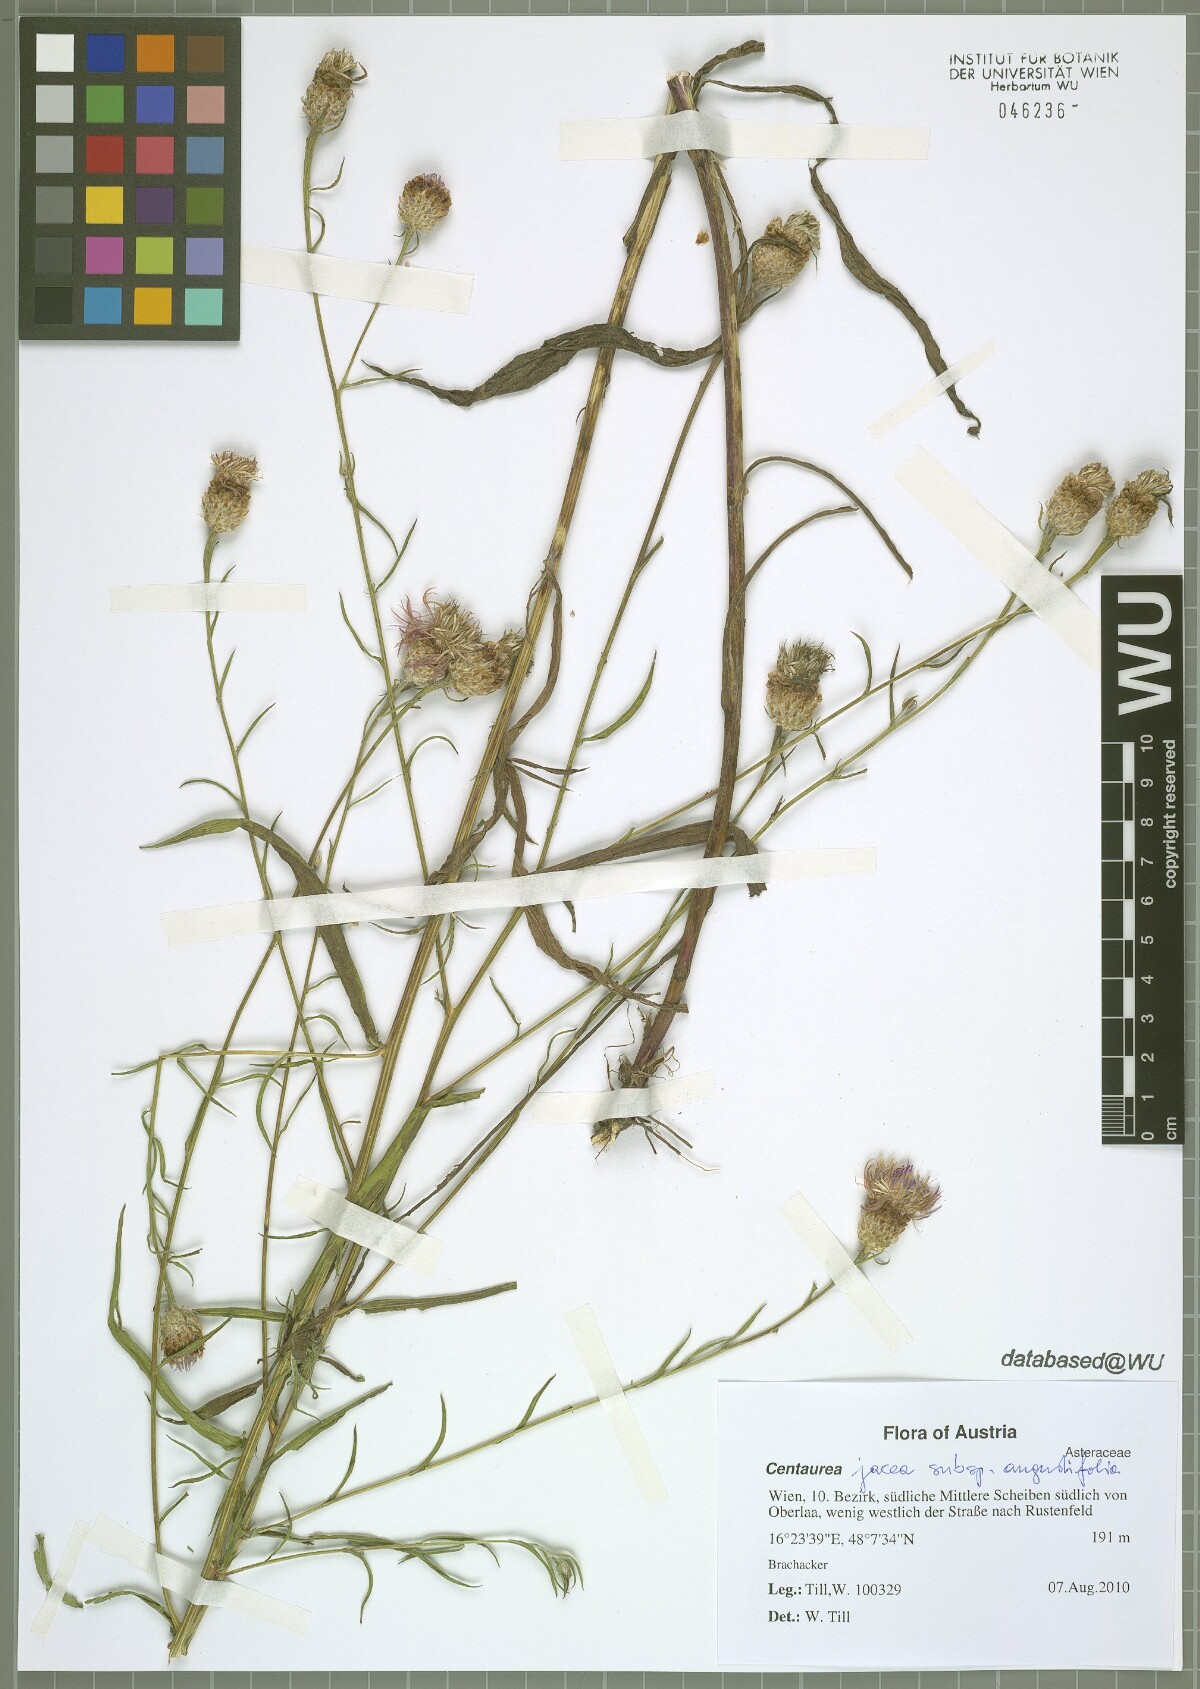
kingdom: Plantae
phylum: Tracheophyta
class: Magnoliopsida
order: Asterales
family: Asteraceae
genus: Centaurea
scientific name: Centaurea pannonica
